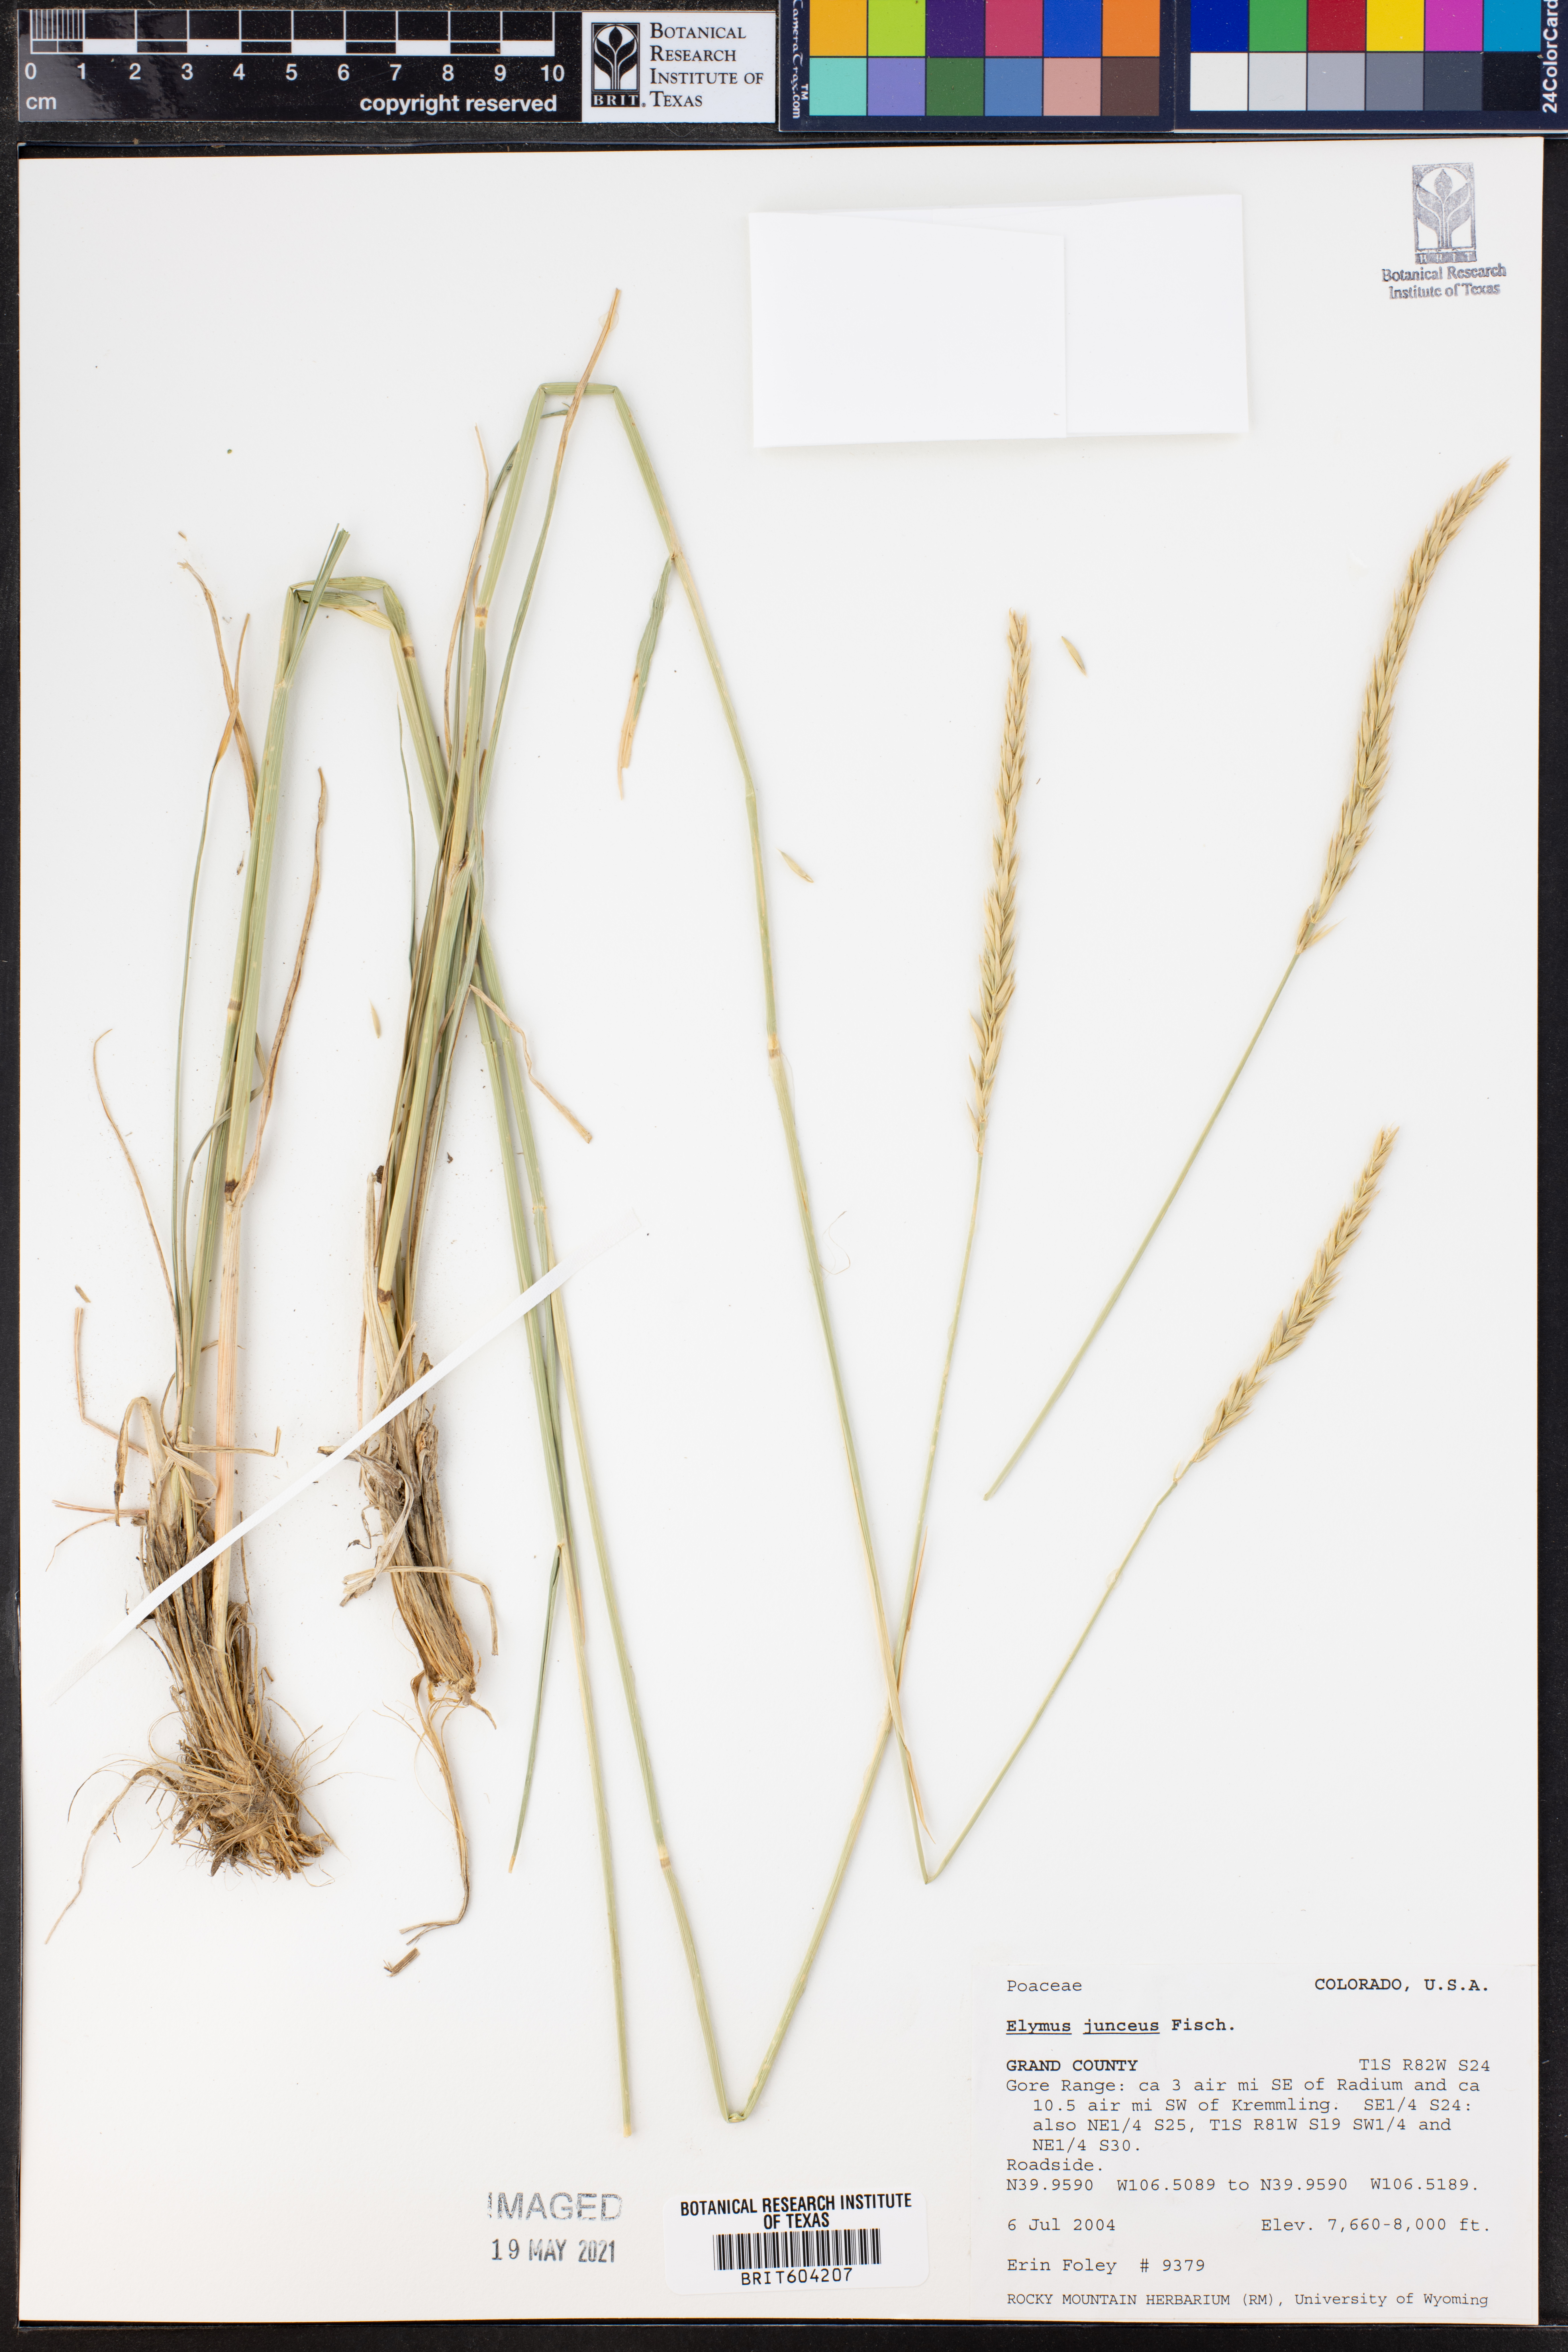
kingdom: Plantae
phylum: Tracheophyta
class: Liliopsida
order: Poales
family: Poaceae
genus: Psathyrostachys
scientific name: Psathyrostachys juncea
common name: Russian wildrye
